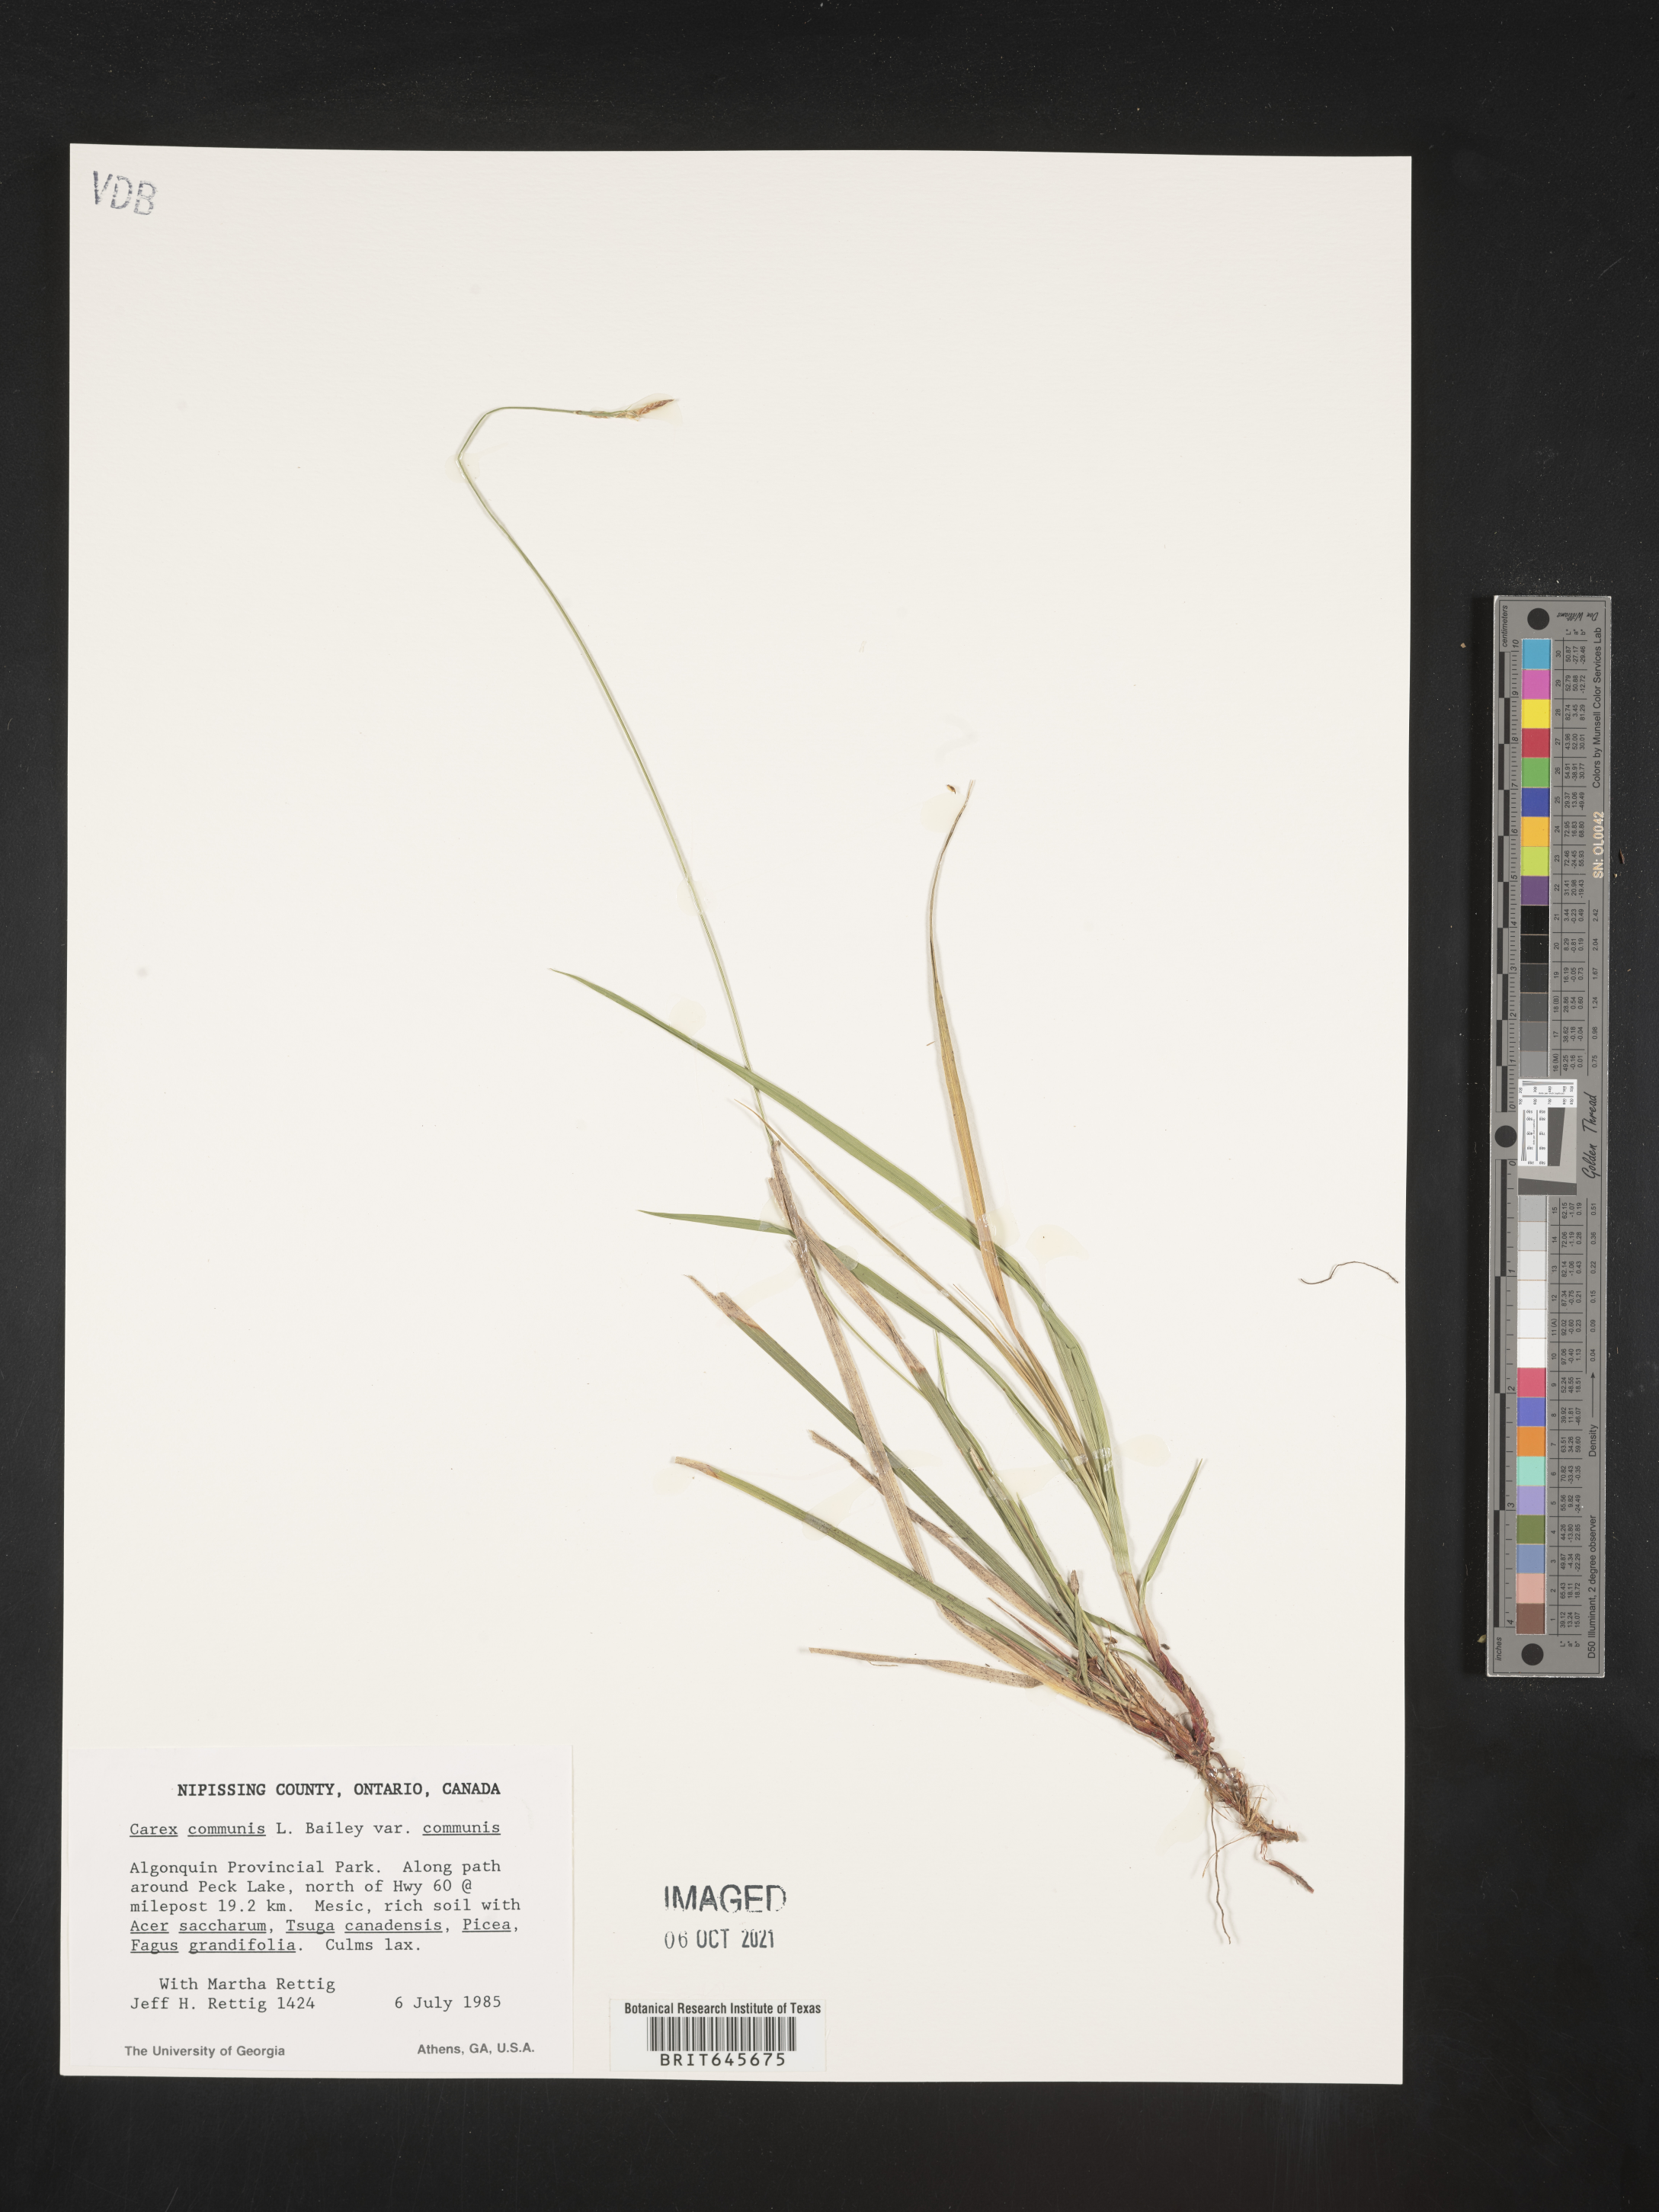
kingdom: Plantae
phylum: Tracheophyta
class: Liliopsida
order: Poales
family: Cyperaceae
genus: Carex
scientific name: Carex communis
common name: Colonial oak sedge
